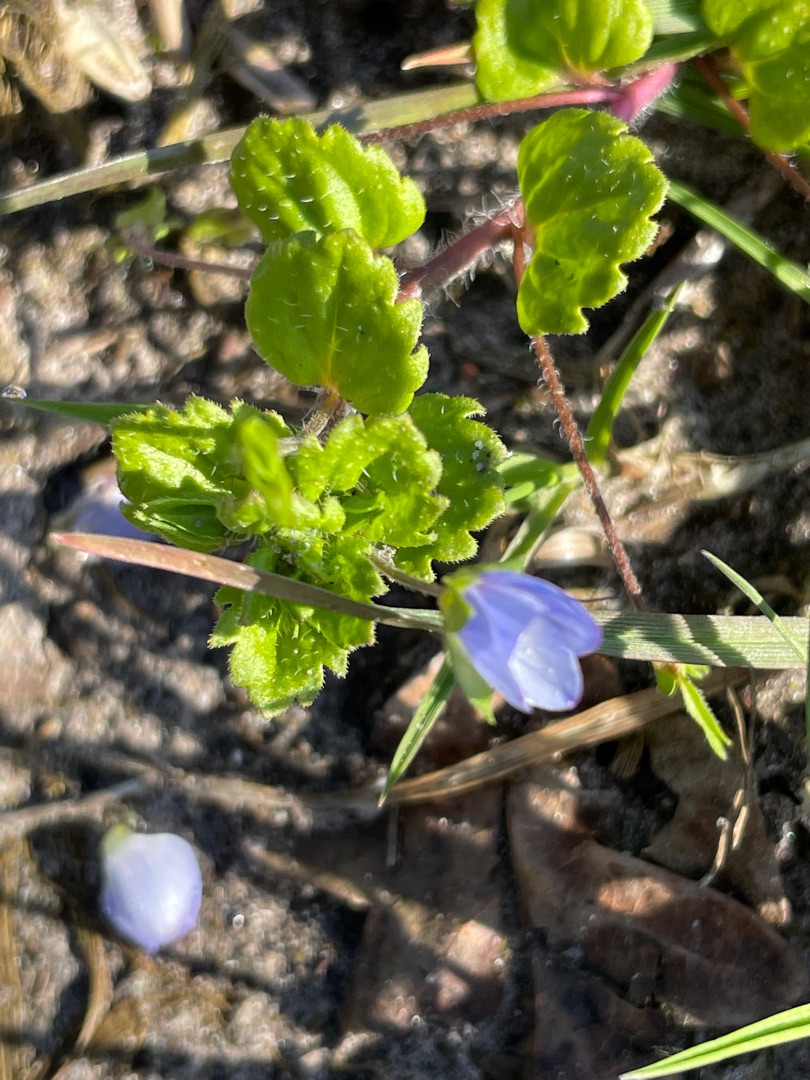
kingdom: Plantae
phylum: Tracheophyta
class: Magnoliopsida
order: Lamiales
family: Plantaginaceae
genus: Veronica
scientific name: Veronica persica
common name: Storkronet ærenpris
